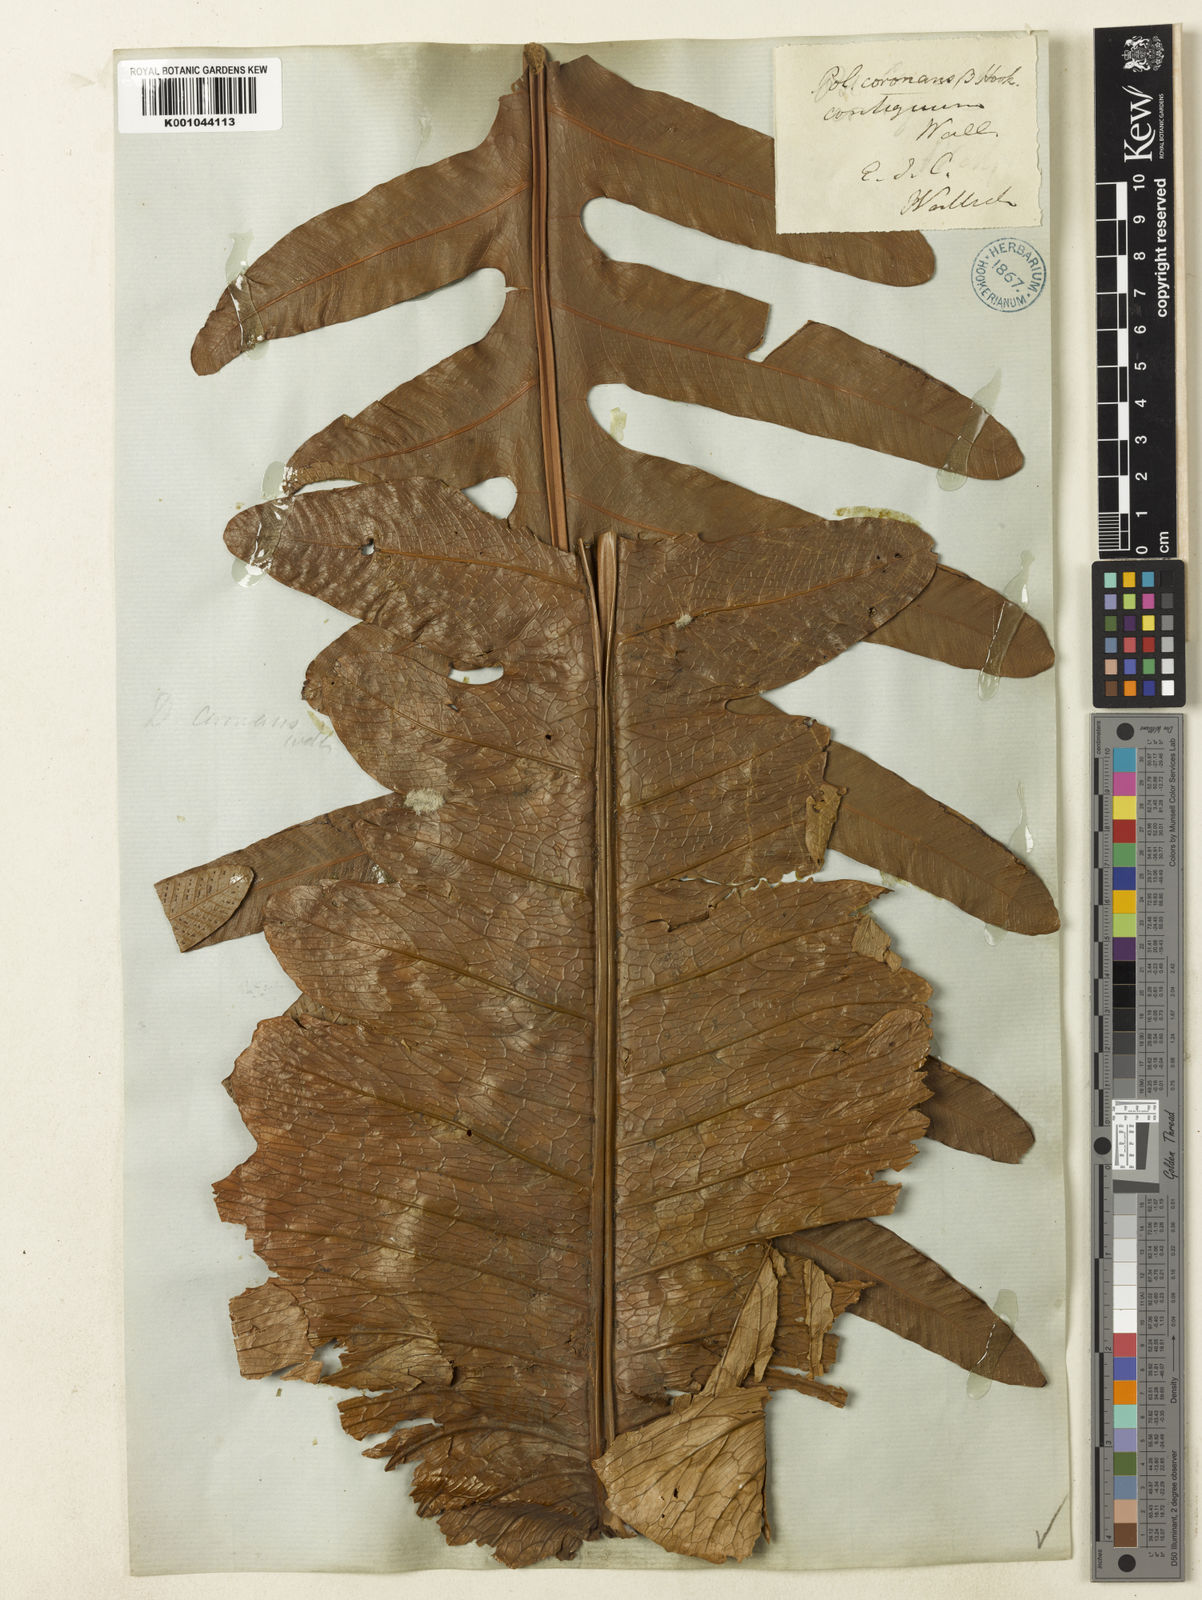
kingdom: Plantae
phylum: Tracheophyta
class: Polypodiopsida
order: Polypodiales
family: Polypodiaceae
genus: Drynaria
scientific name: Drynaria coronans
